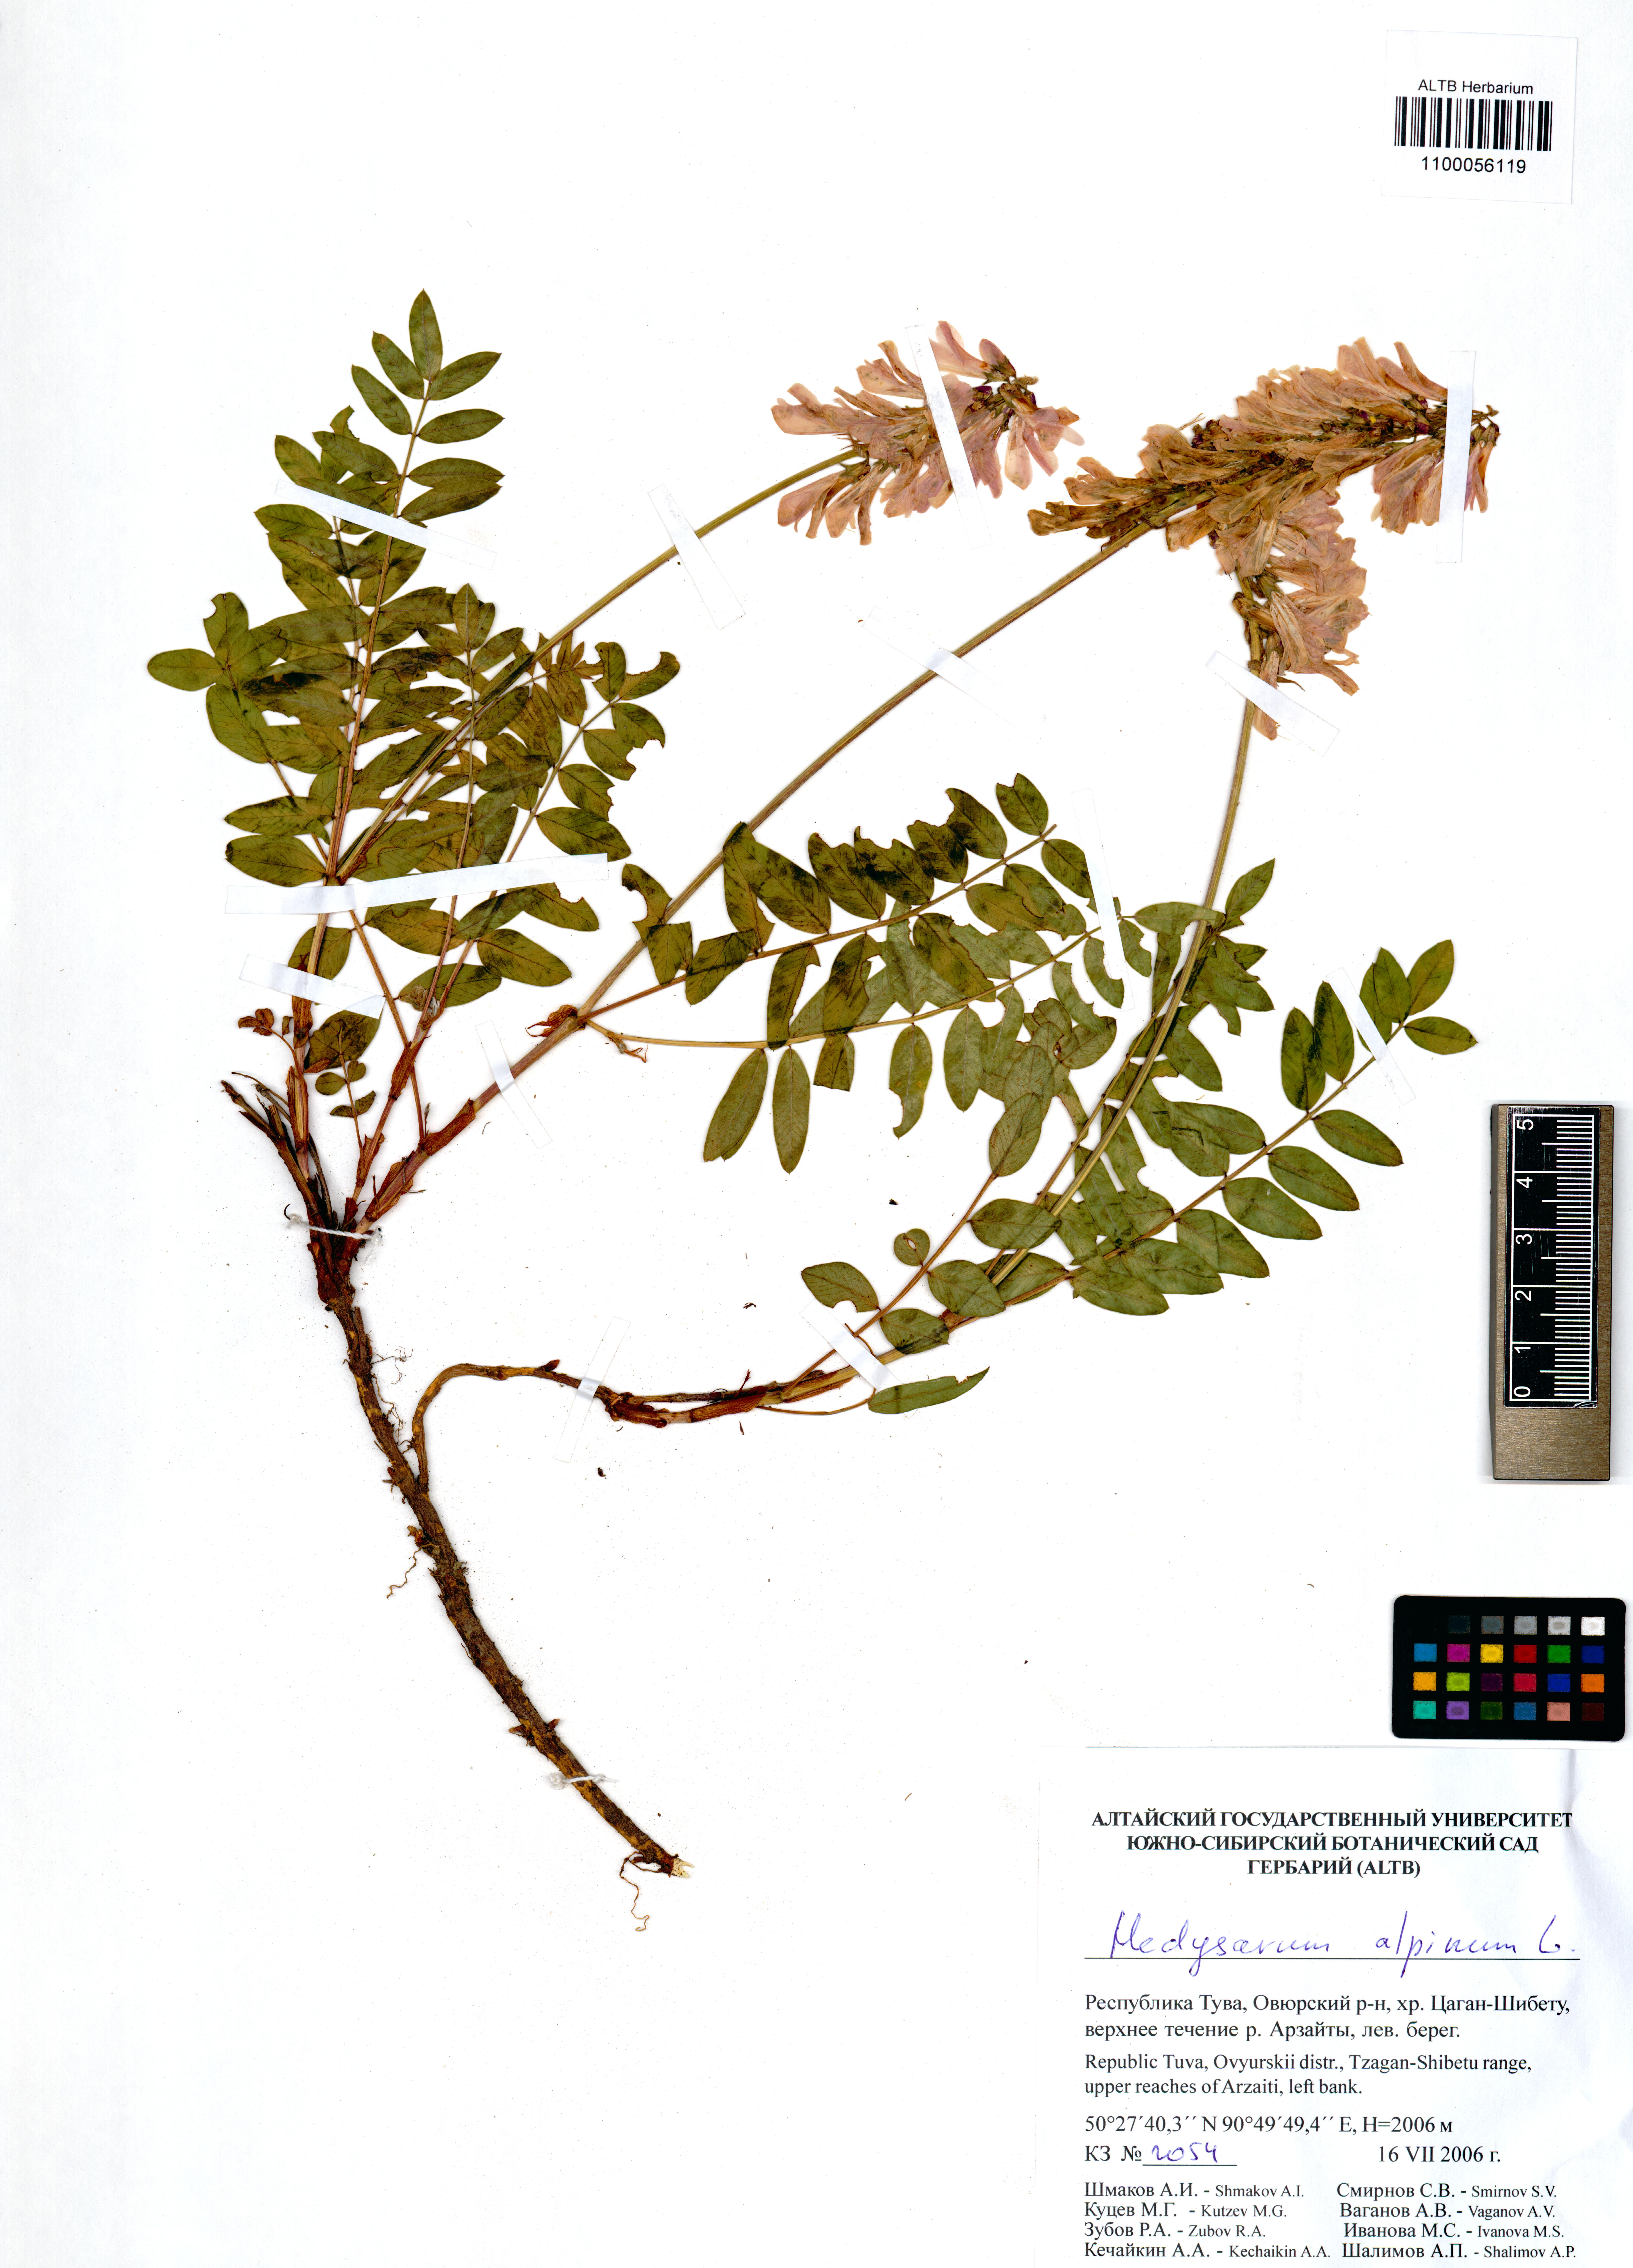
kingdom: Plantae
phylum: Tracheophyta
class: Magnoliopsida
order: Fabales
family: Fabaceae
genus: Hedysarum
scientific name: Hedysarum alpinum
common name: Alpine sweet-vetch
